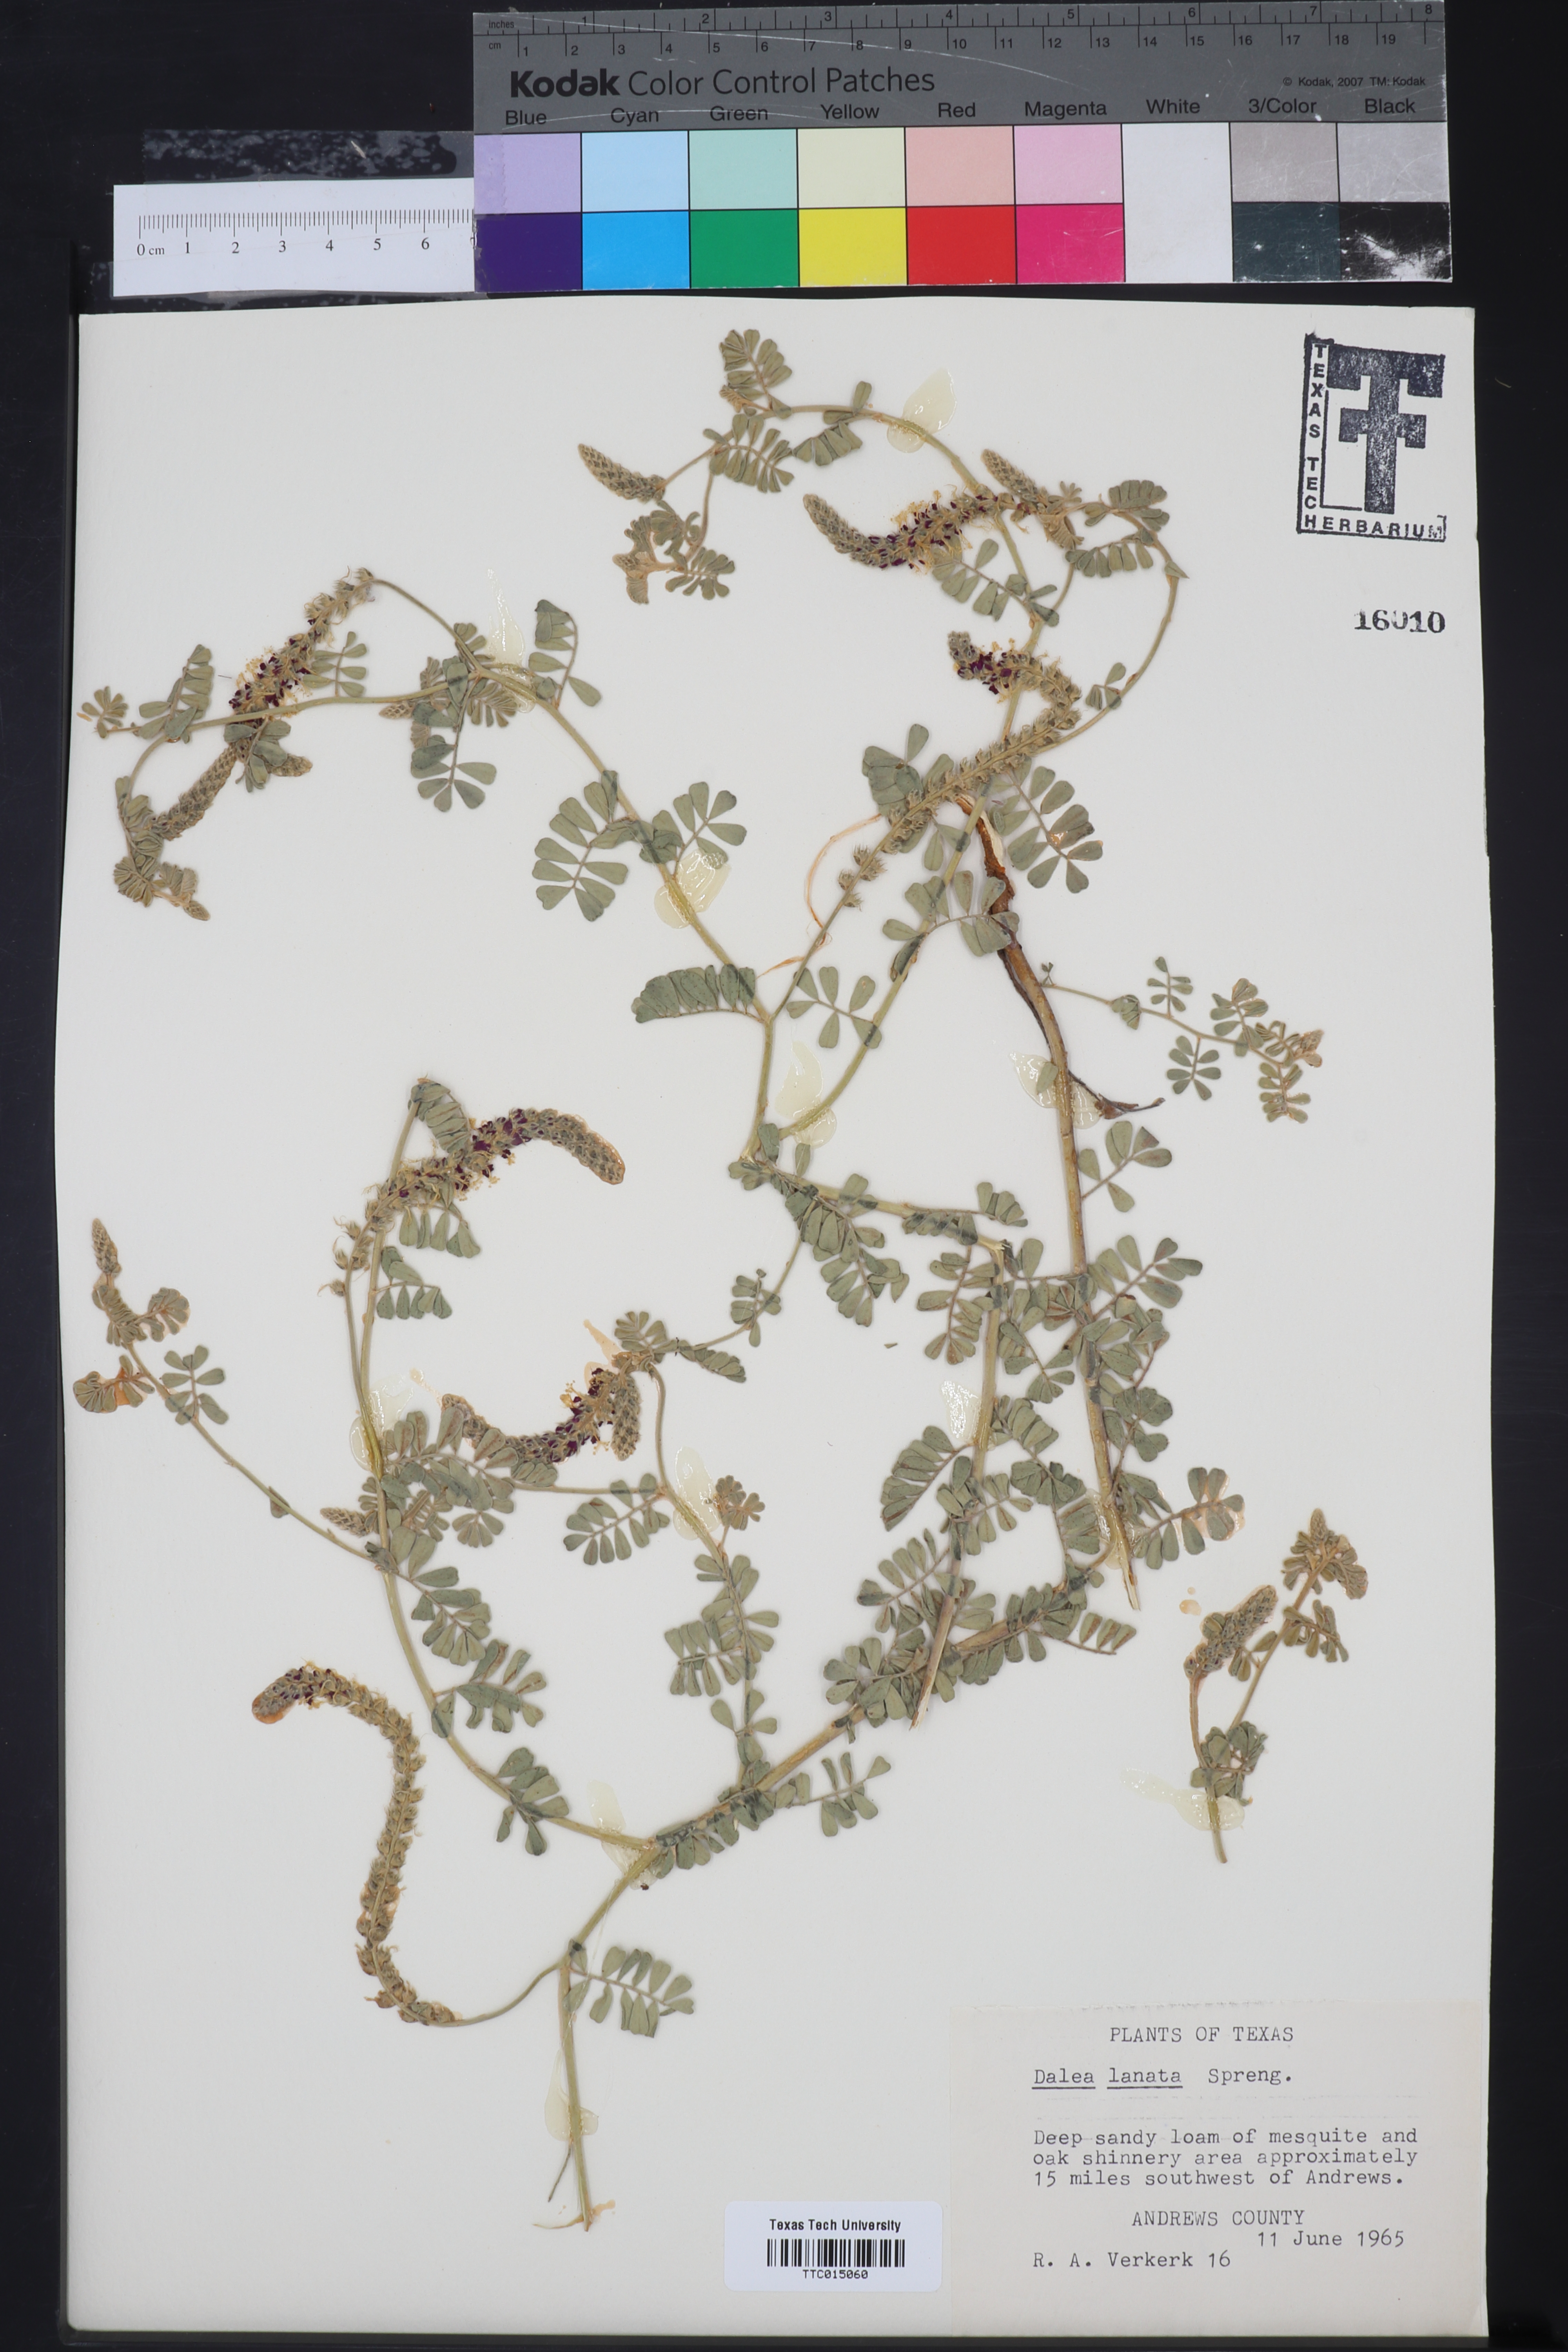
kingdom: Plantae
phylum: Tracheophyta
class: Magnoliopsida
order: Fabales
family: Fabaceae
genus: Dalea
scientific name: Dalea lanata
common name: Woolly dalea
